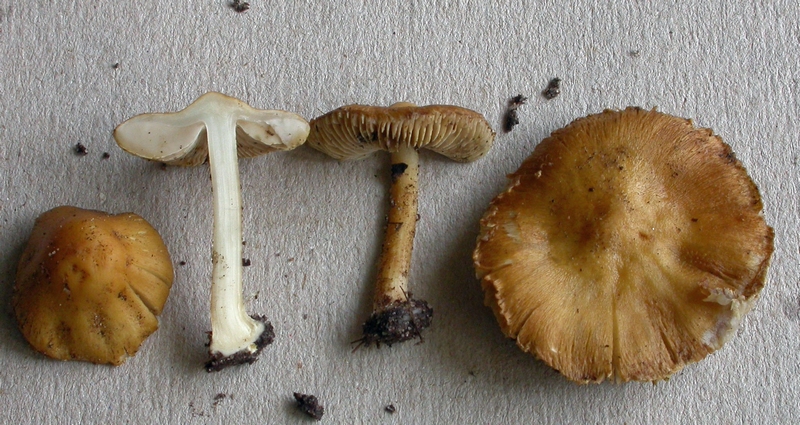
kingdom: Fungi
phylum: Basidiomycota
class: Agaricomycetes
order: Agaricales
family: Inocybaceae
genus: Inocybe
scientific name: Inocybe langei
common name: Langes trævlhat
